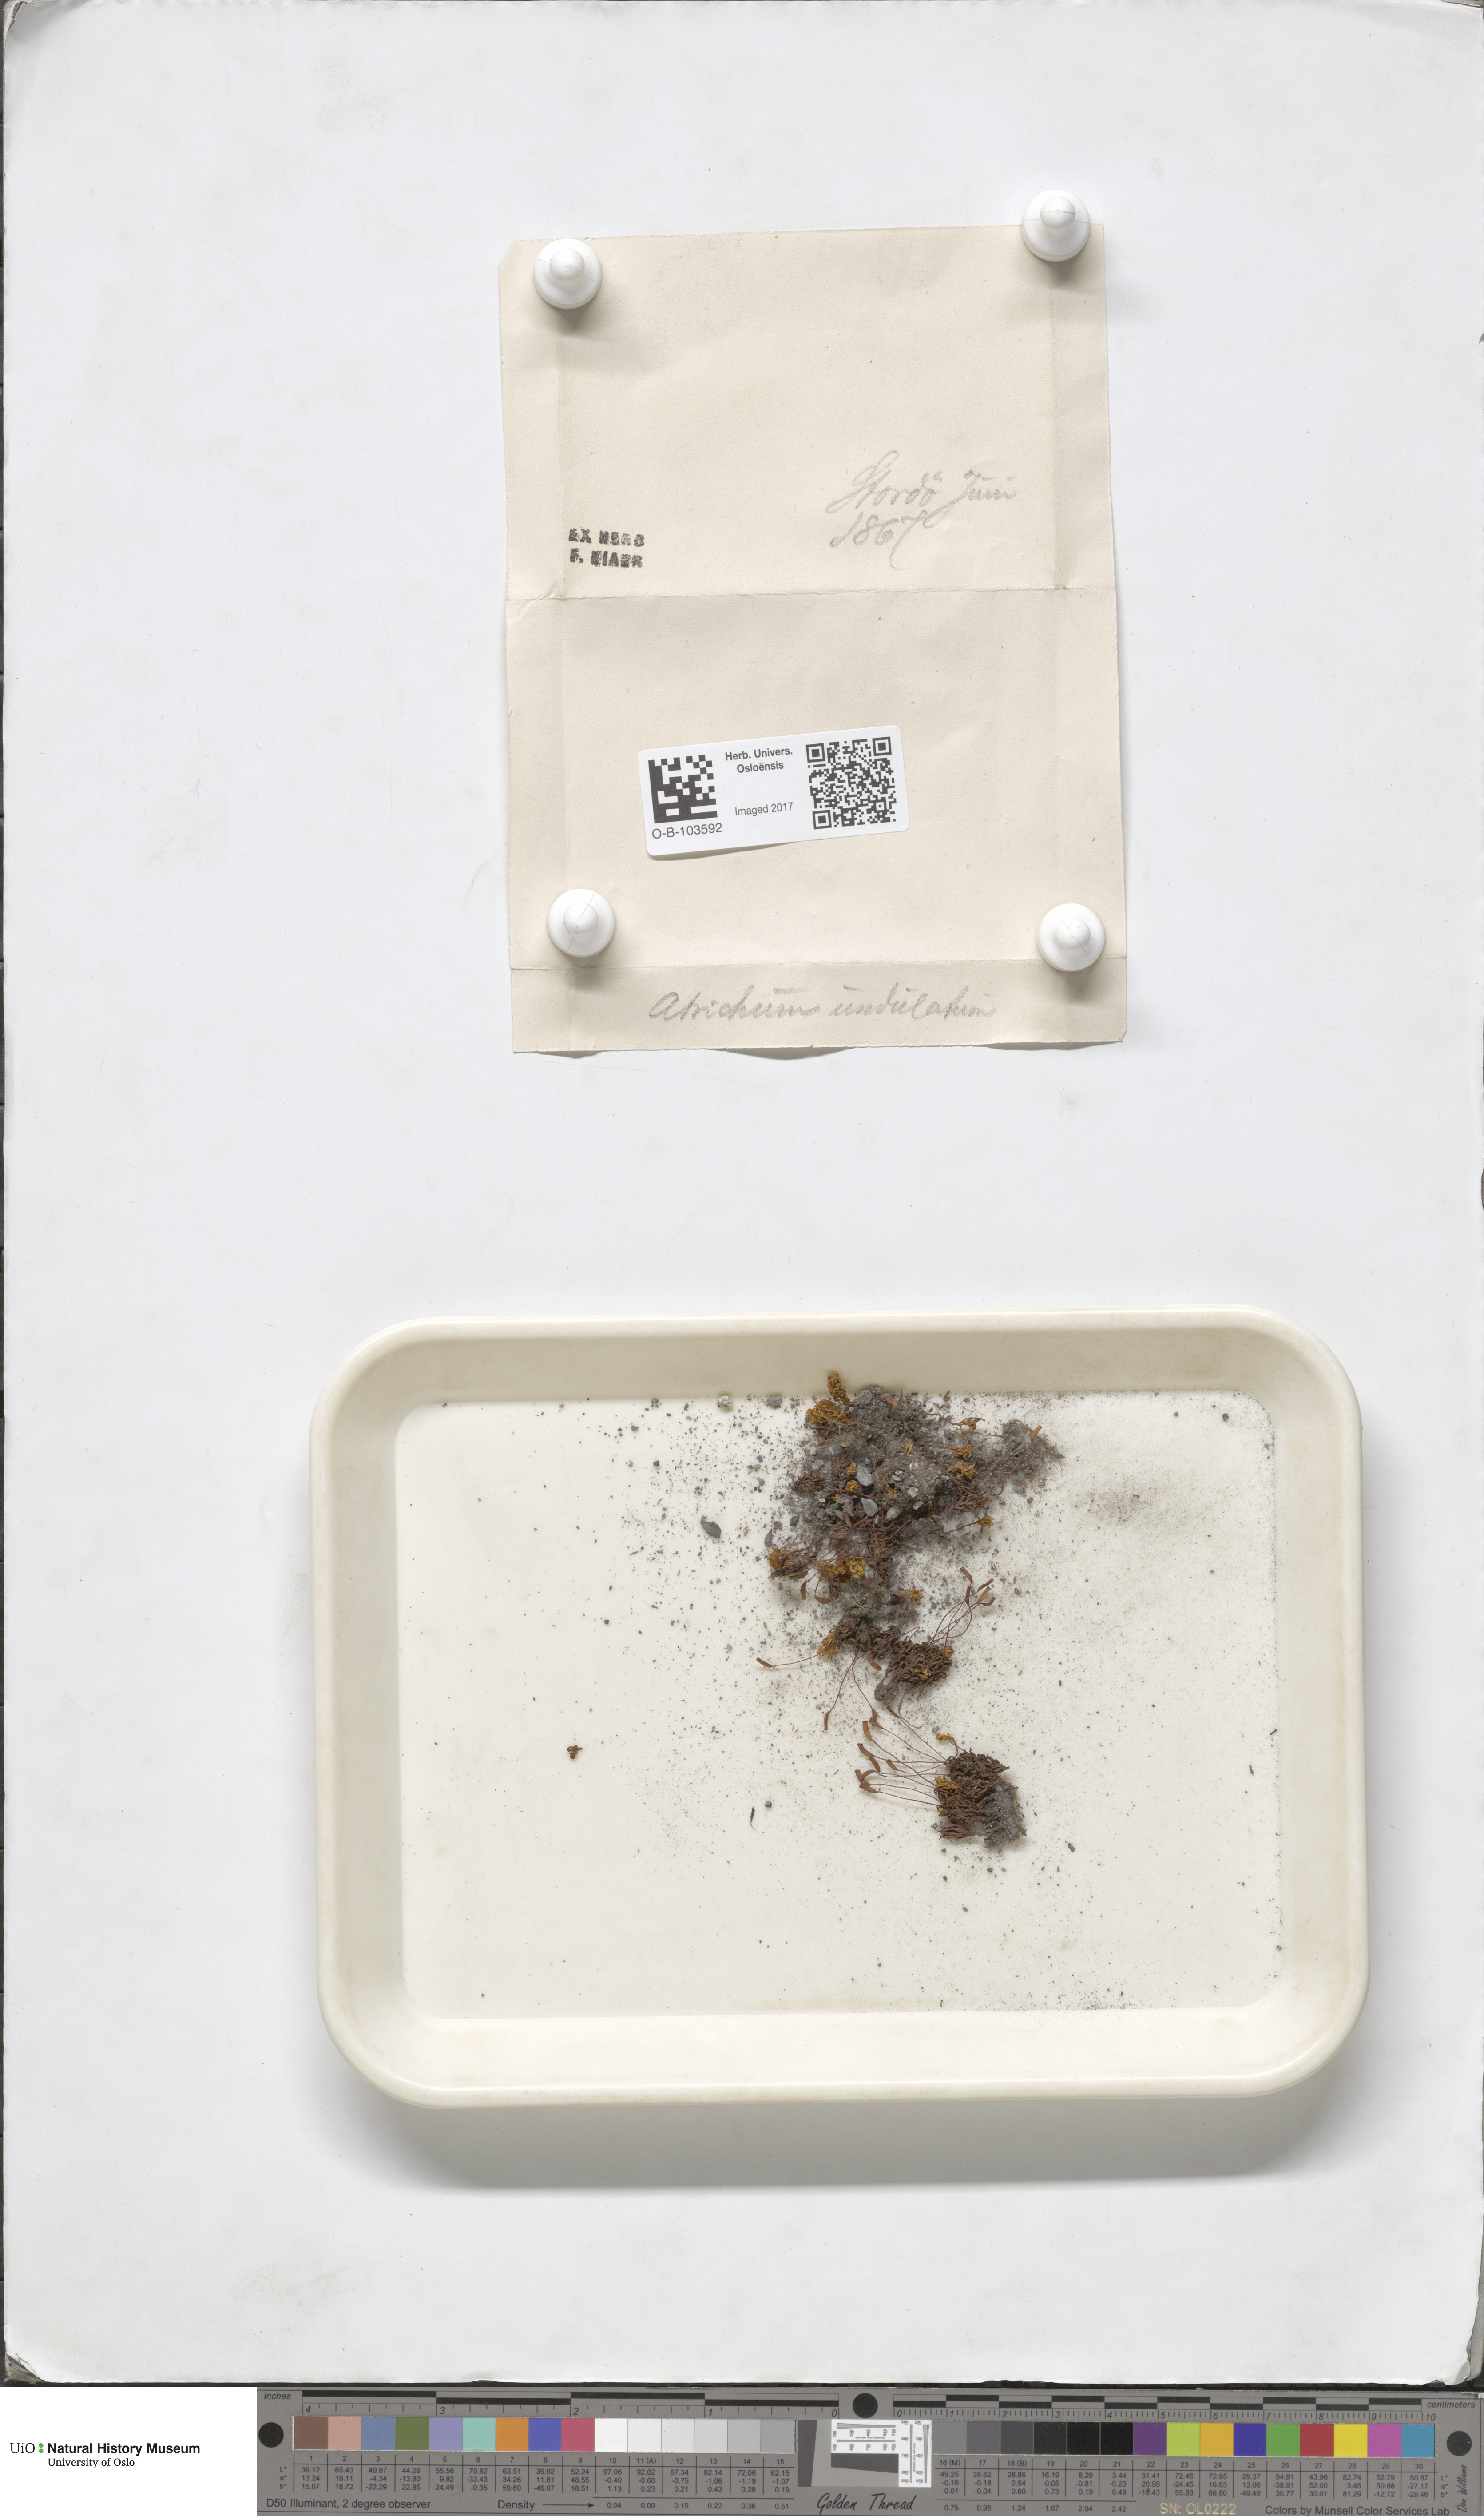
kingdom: Plantae
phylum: Bryophyta
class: Polytrichopsida
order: Polytrichales
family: Polytrichaceae
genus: Atrichum
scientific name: Atrichum undulatum
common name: Common smoothcap
